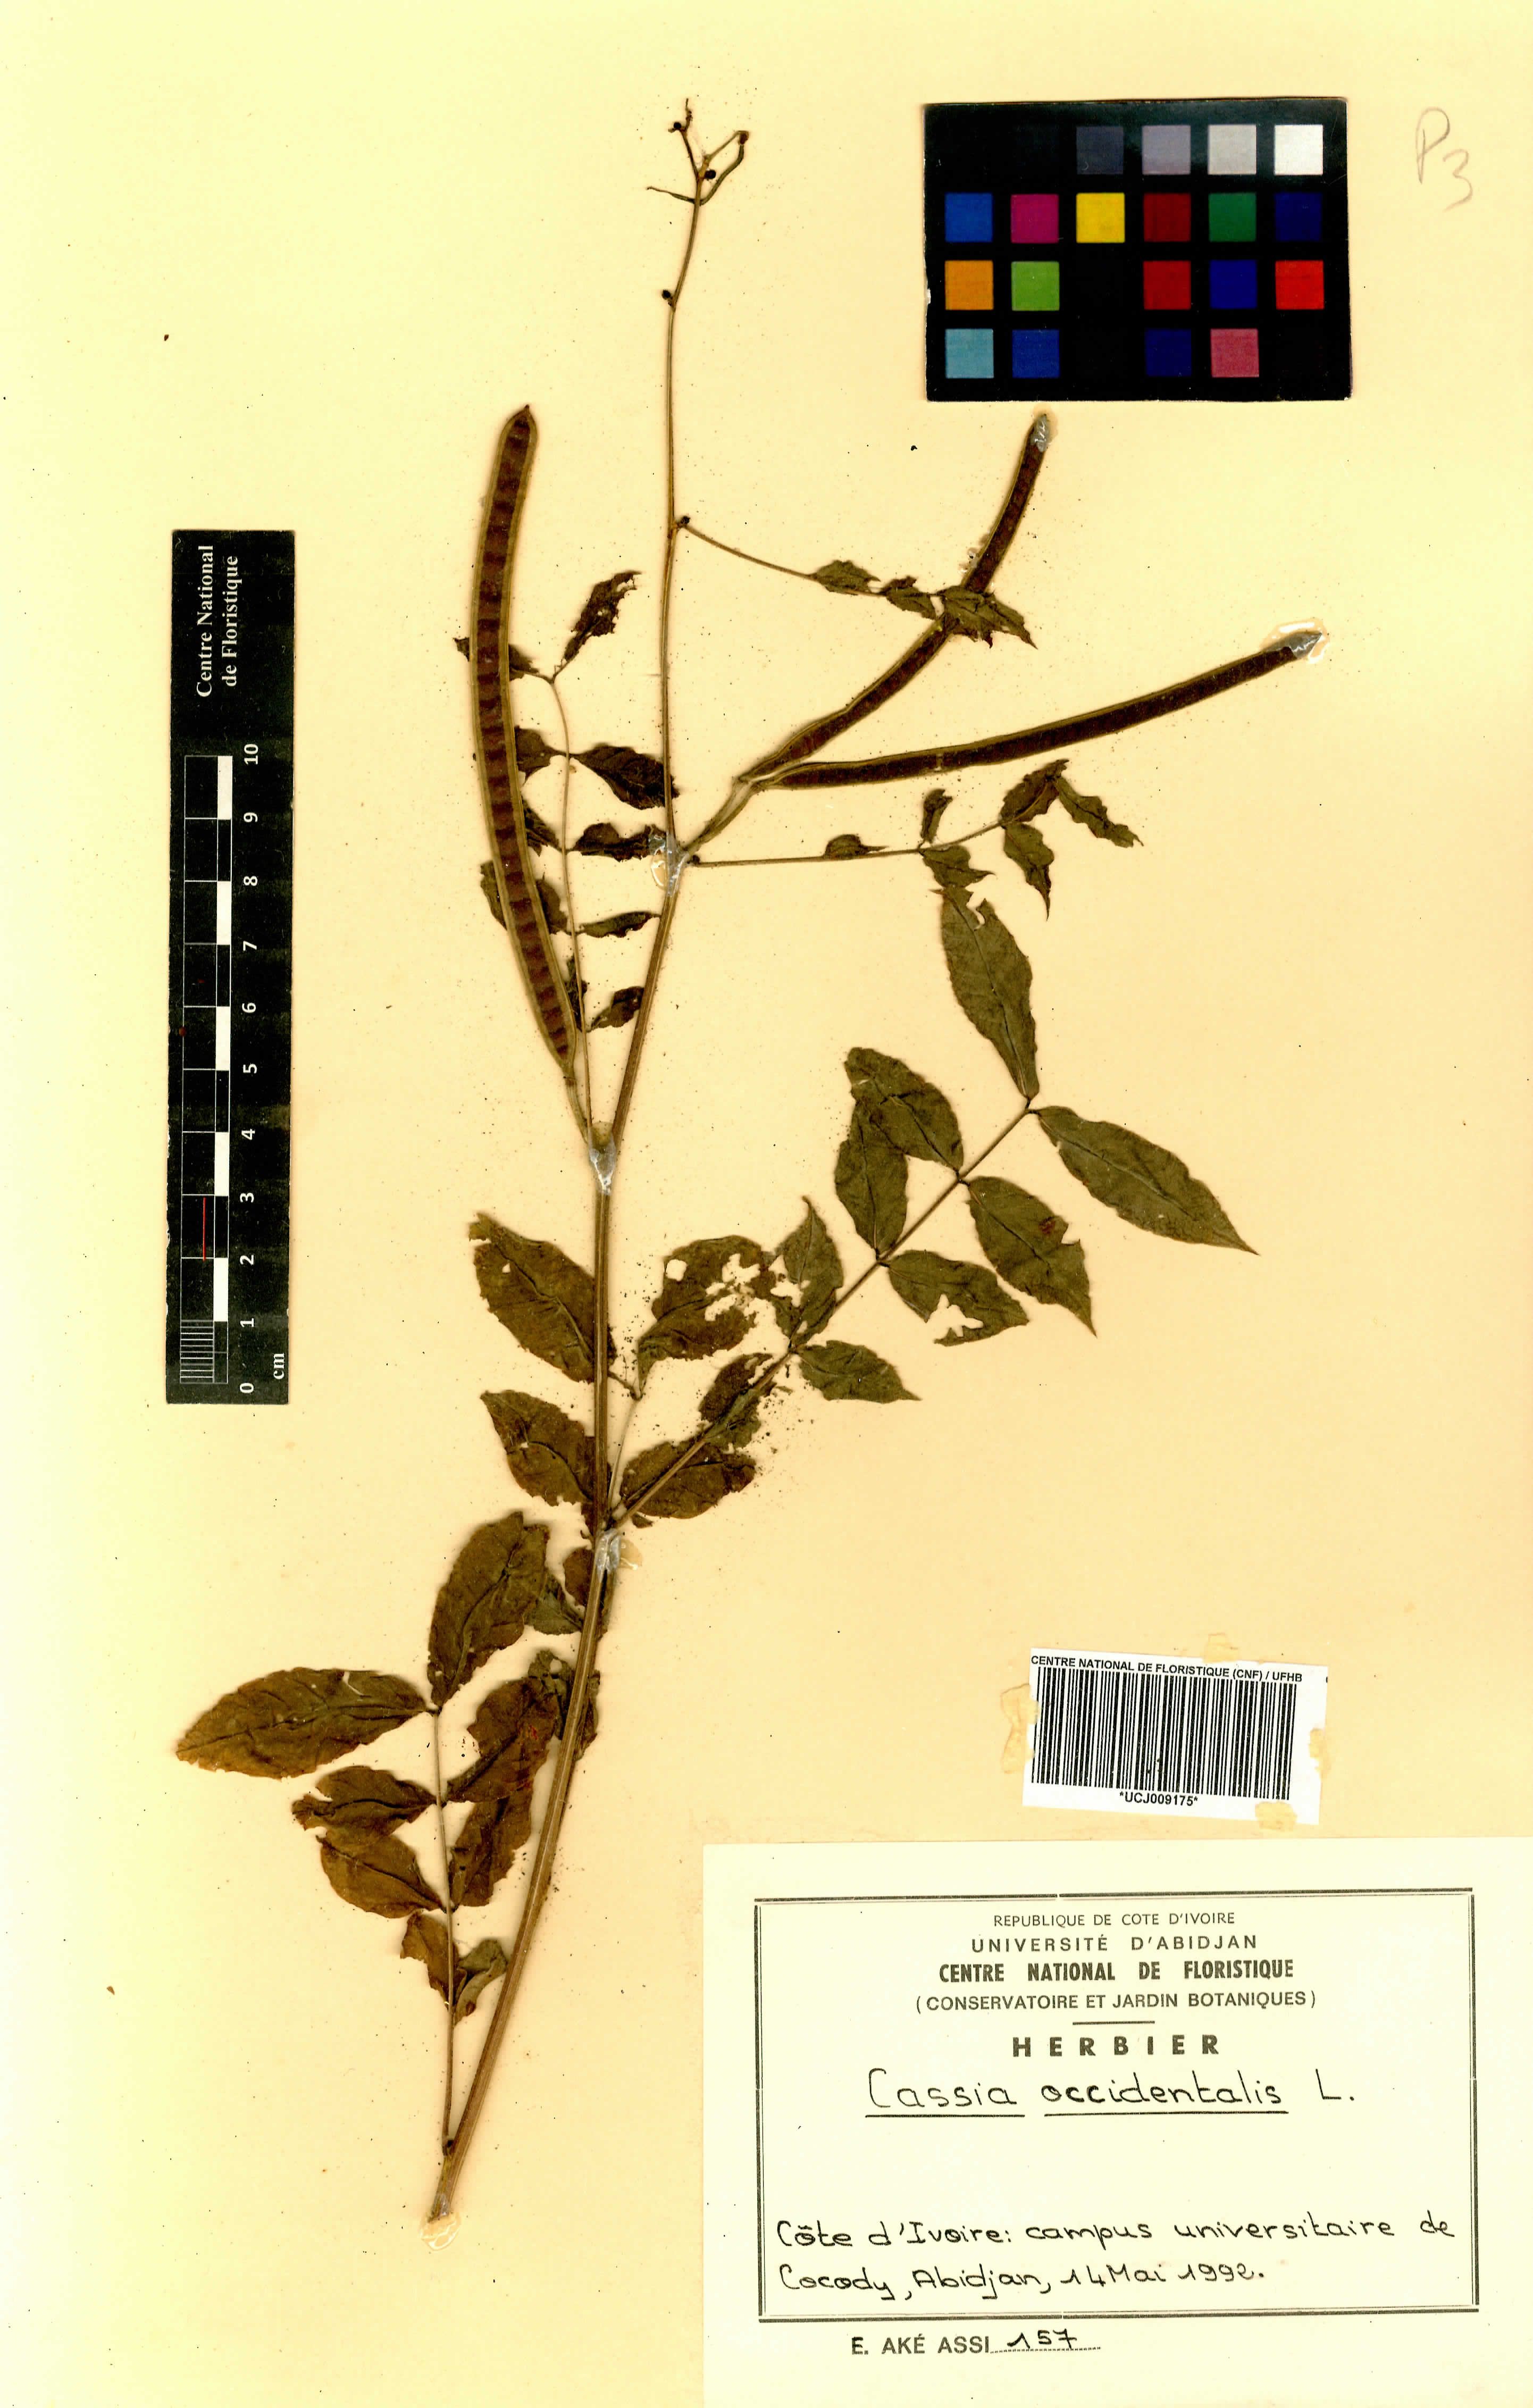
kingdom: Plantae
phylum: Tracheophyta
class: Magnoliopsida
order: Fabales
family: Fabaceae
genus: Senna
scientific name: Senna occidentalis
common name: Septicweed
